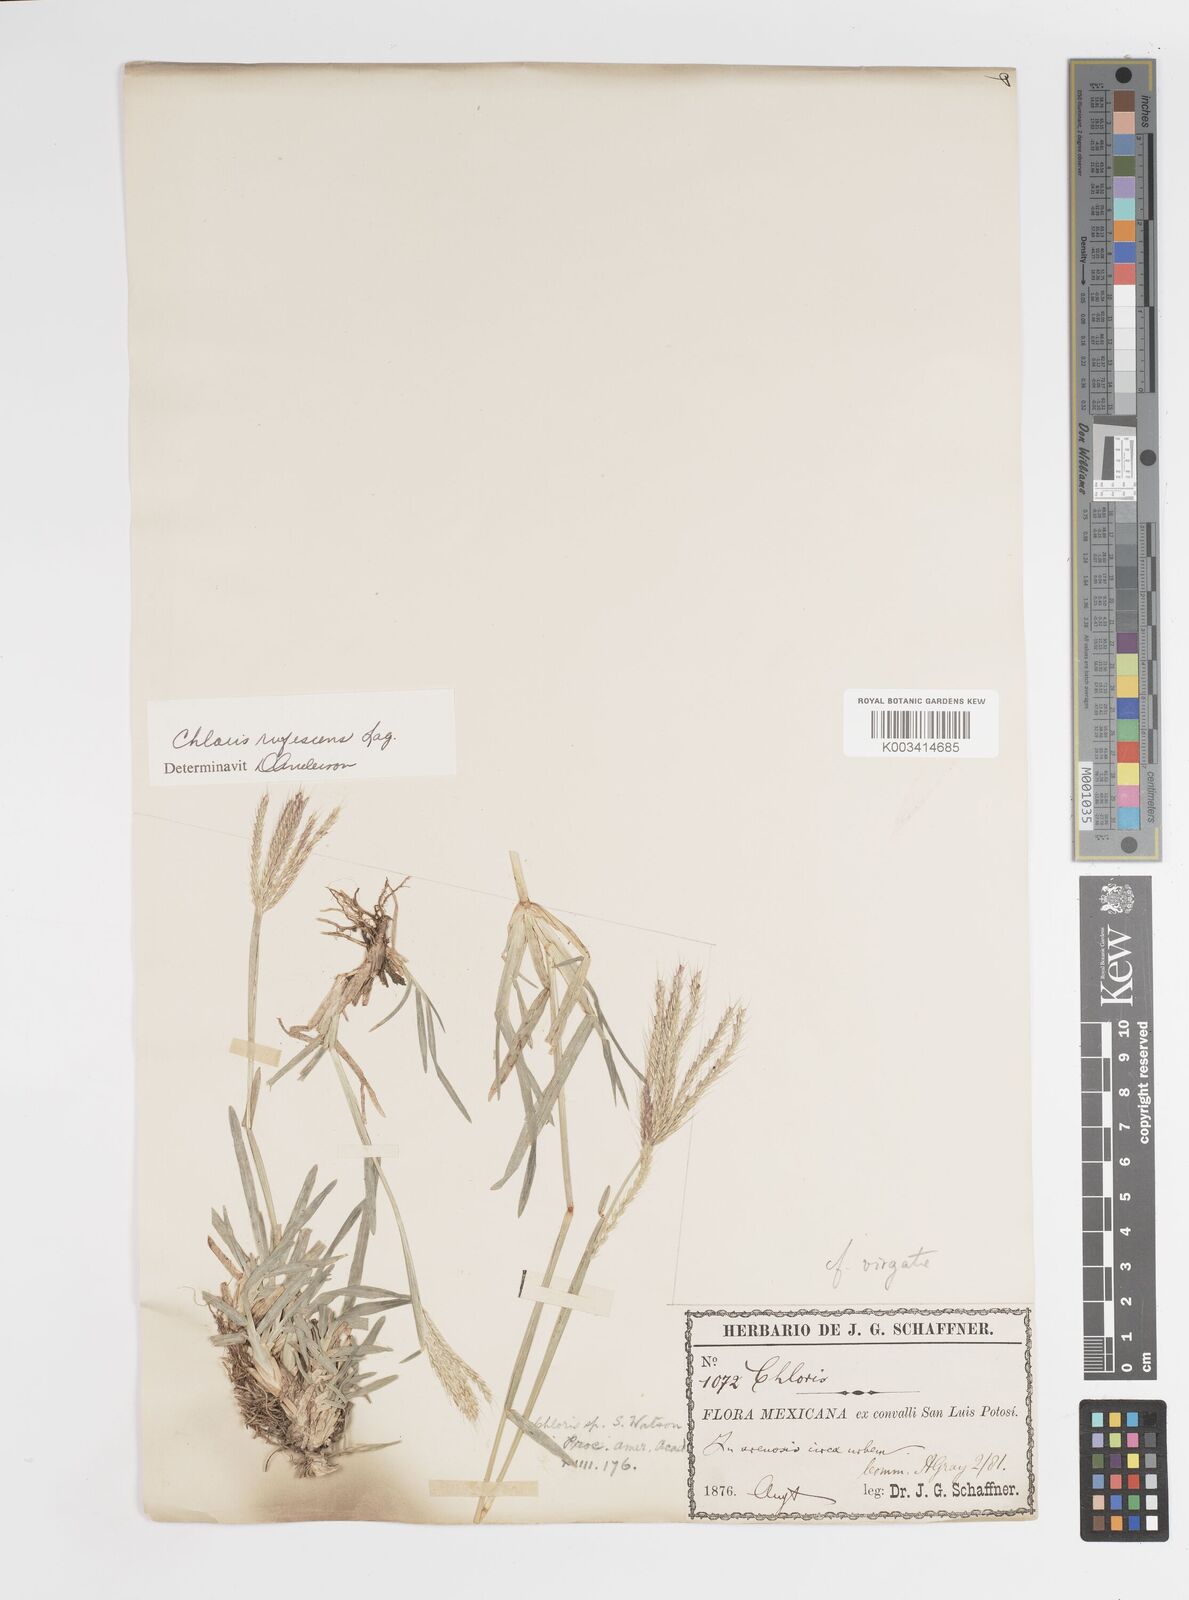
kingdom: Plantae
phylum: Tracheophyta
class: Liliopsida
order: Poales
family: Poaceae
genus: Chloris
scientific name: Chloris rufescens
